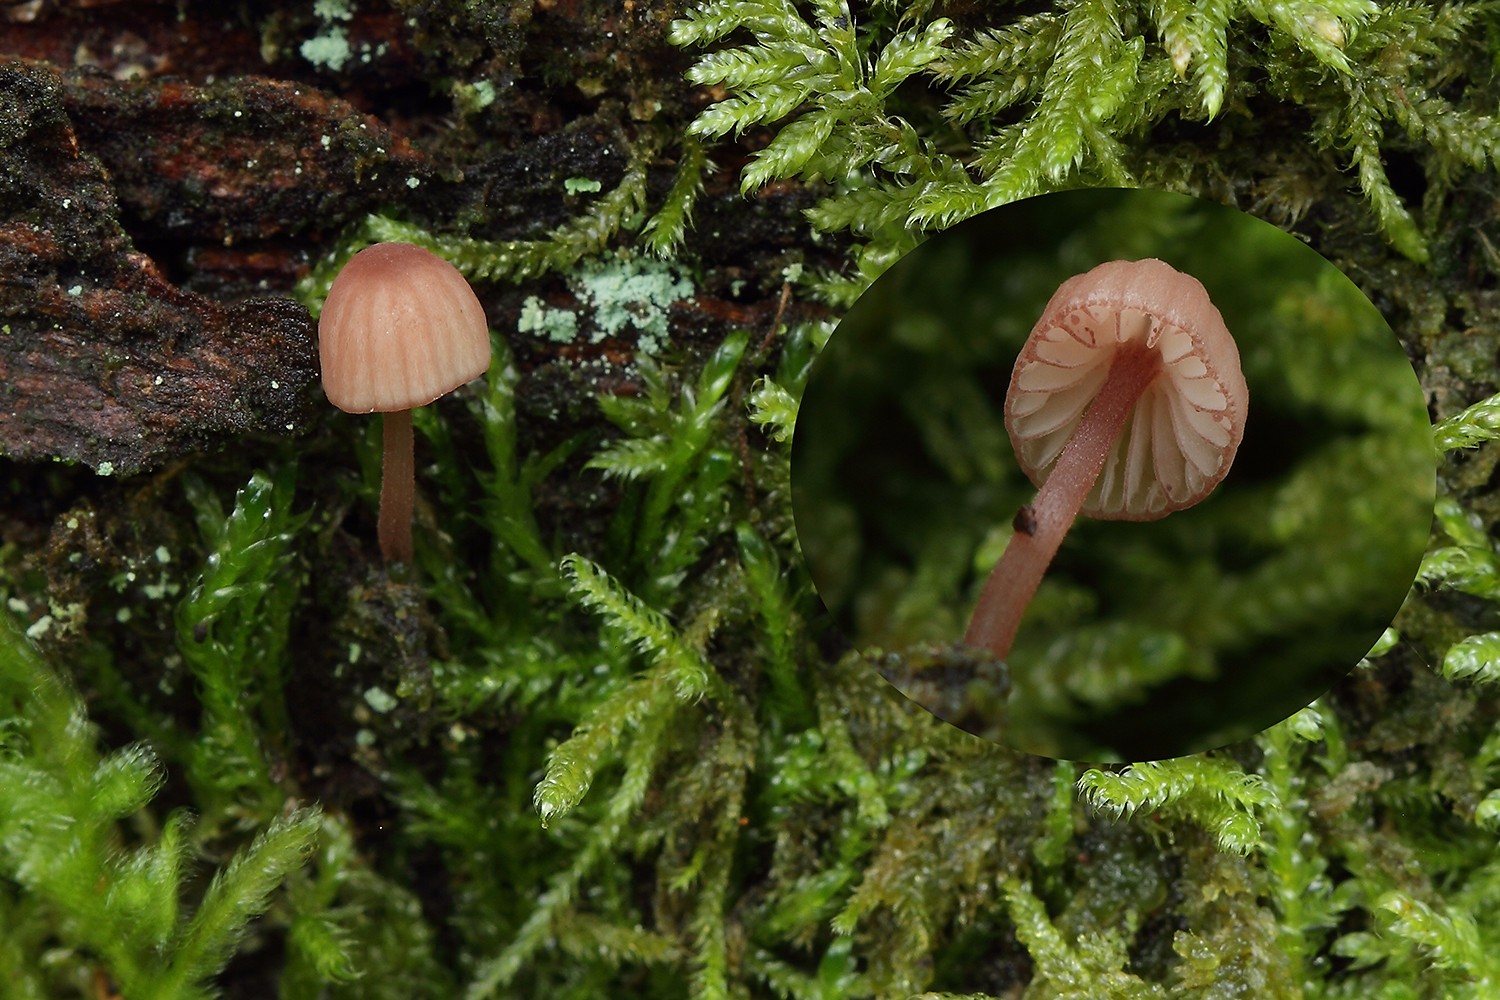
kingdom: Fungi
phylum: Basidiomycota
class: Agaricomycetes
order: Agaricales
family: Mycenaceae
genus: Mycena
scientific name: Mycena sanguinolenta
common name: rødmælket huesvamp
